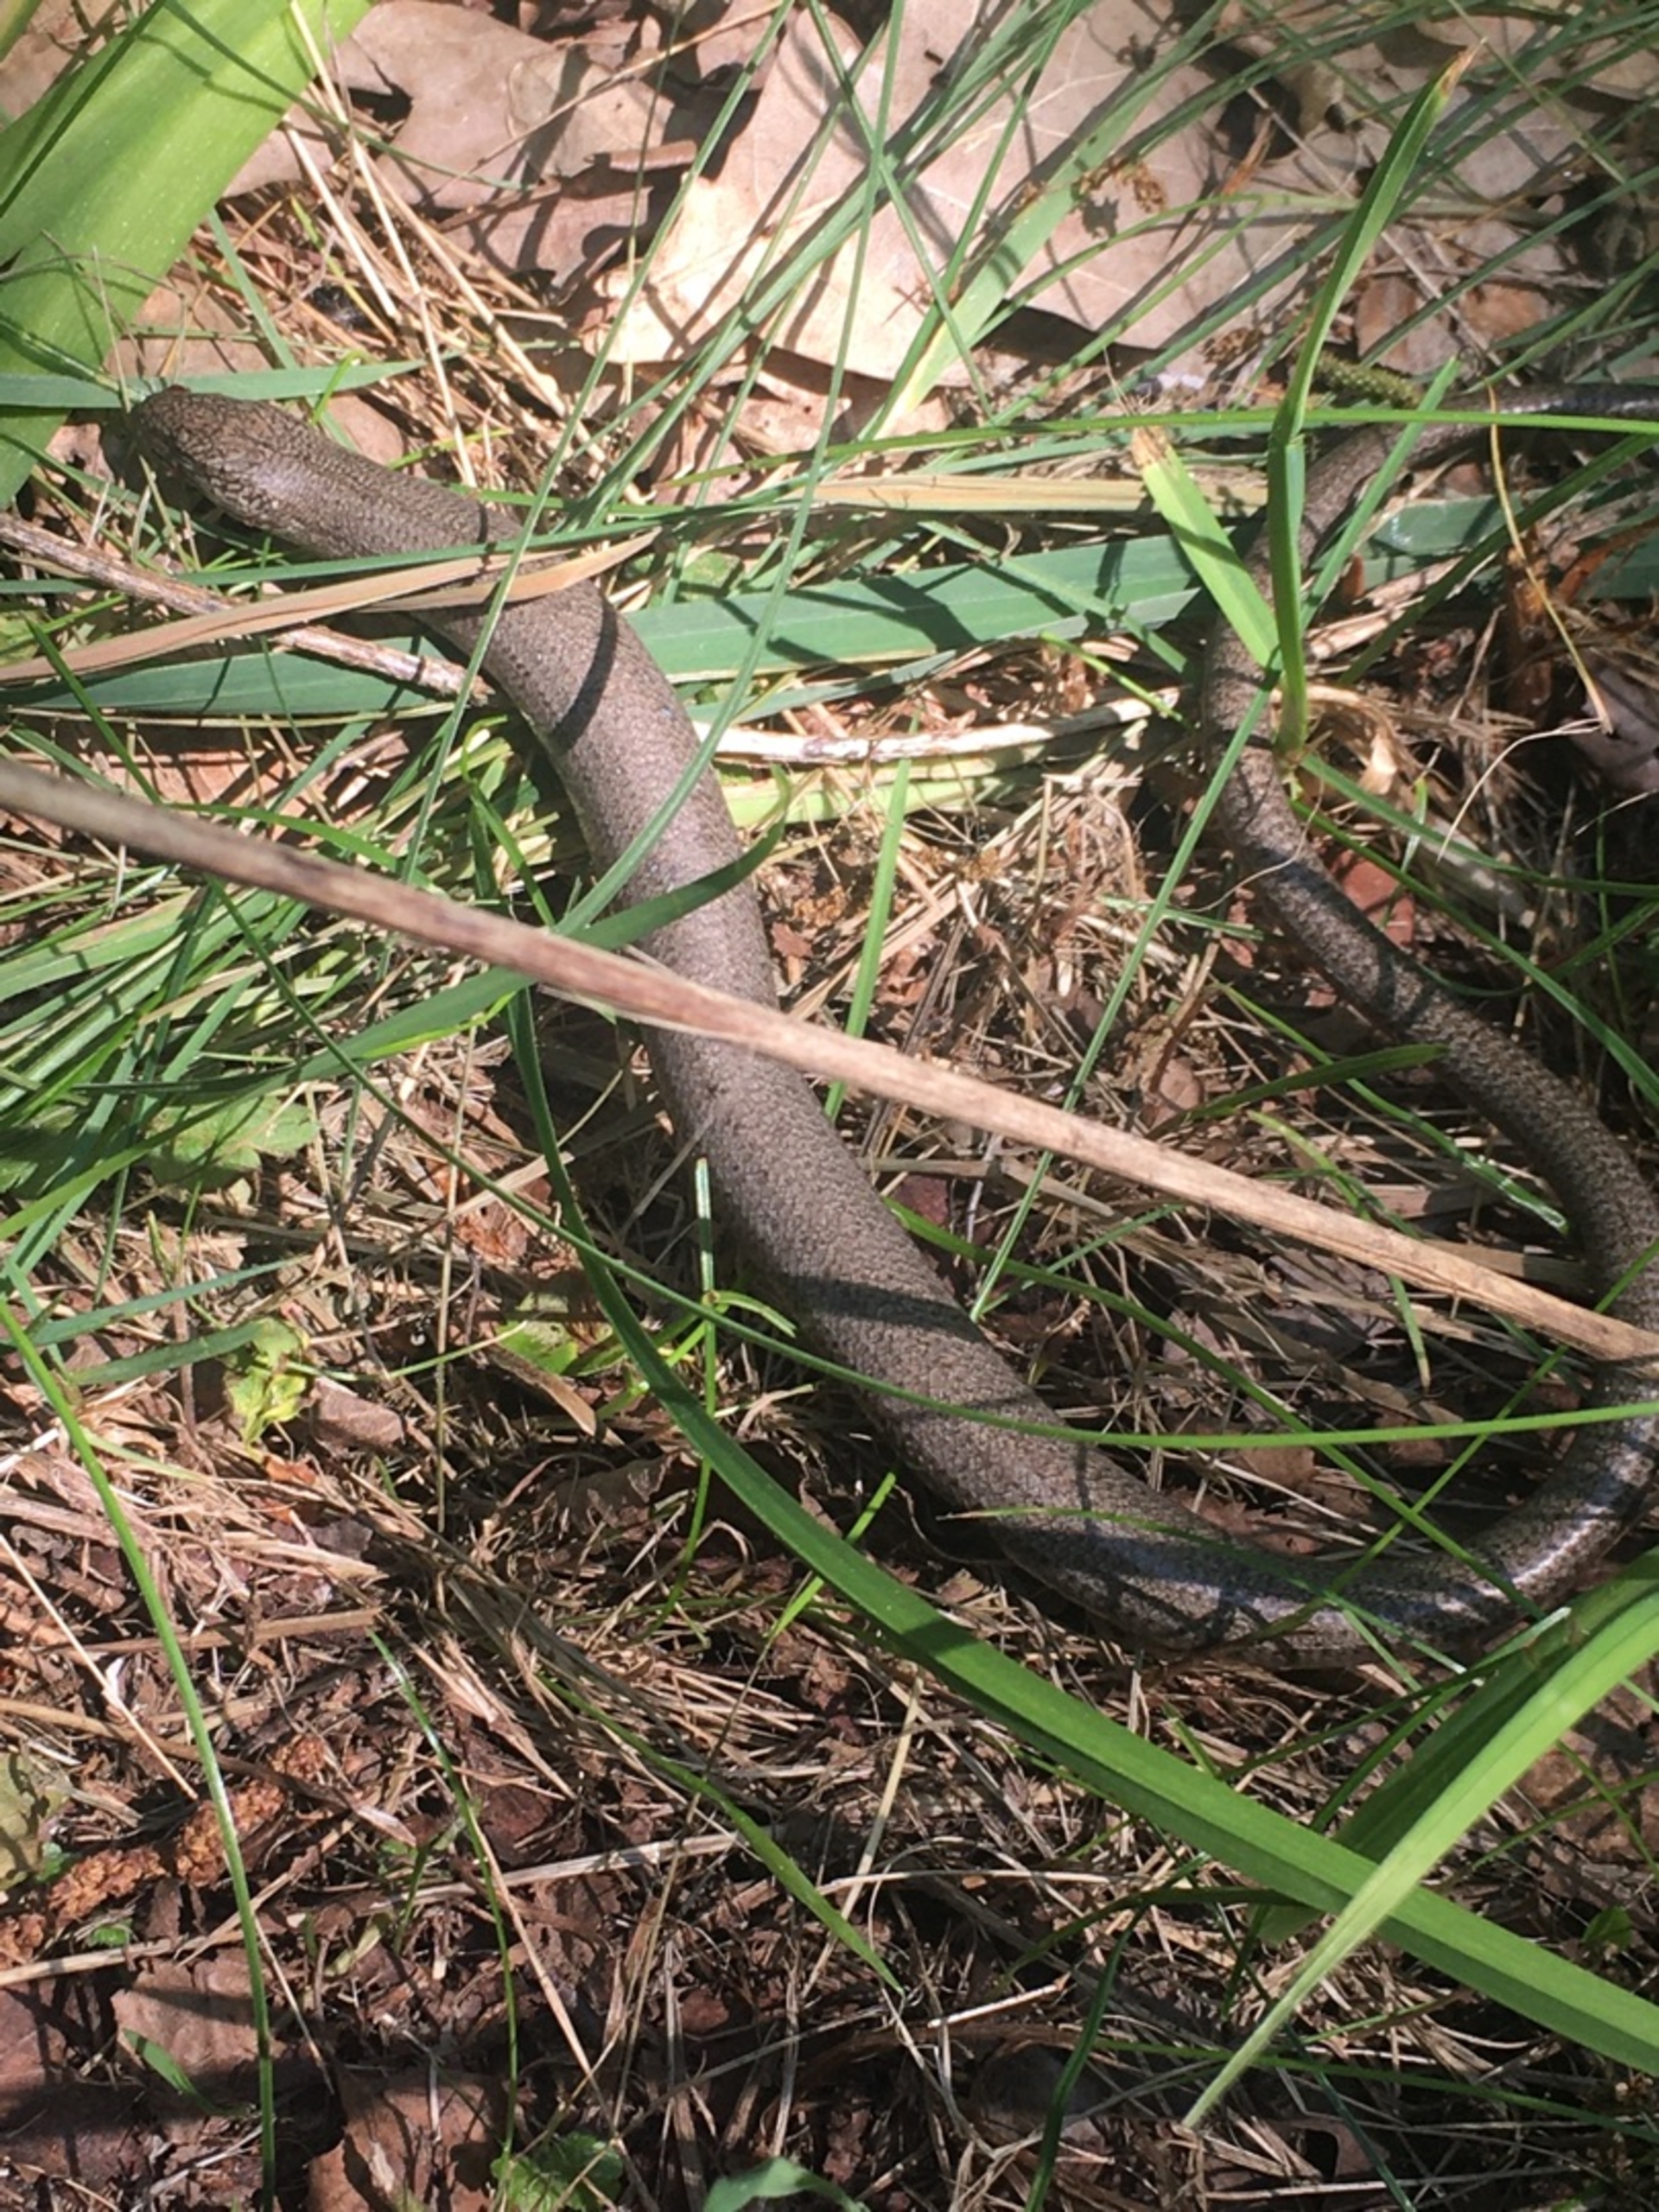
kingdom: Animalia
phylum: Chordata
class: Squamata
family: Anguidae
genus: Anguis
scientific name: Anguis fragilis
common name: Stålorm
